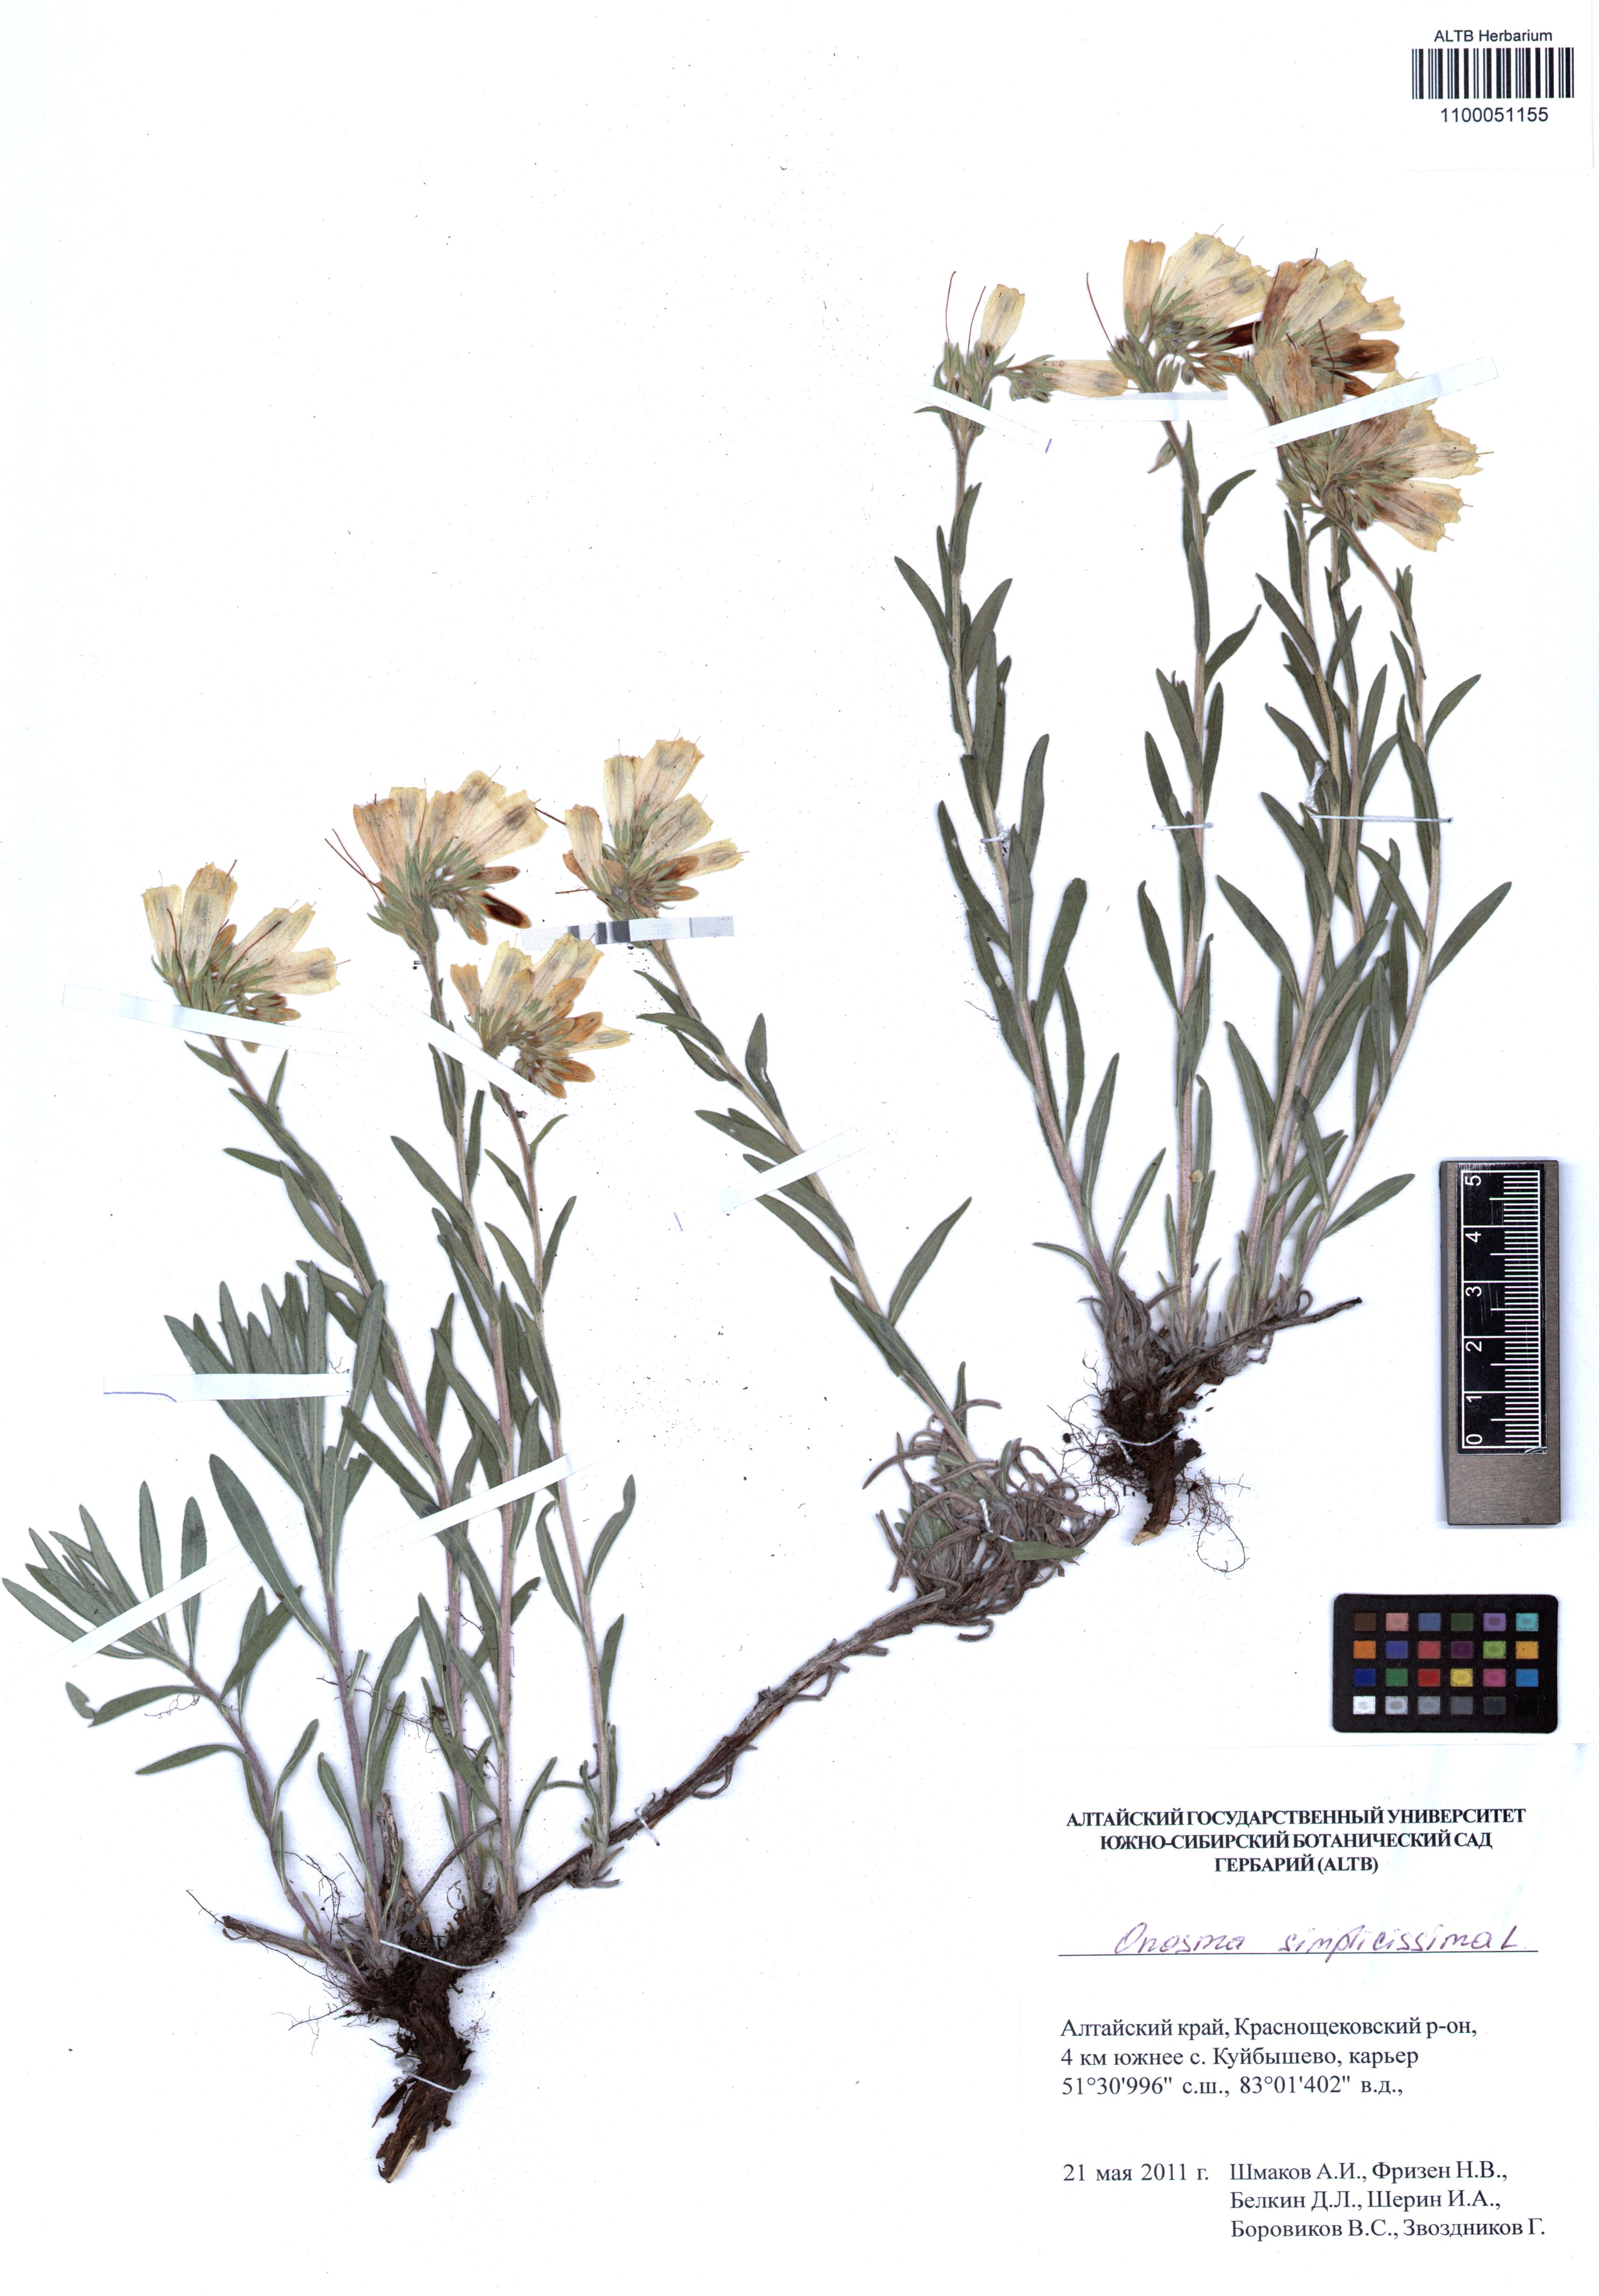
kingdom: Plantae
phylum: Tracheophyta
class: Magnoliopsida
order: Boraginales
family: Boraginaceae
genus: Onosma
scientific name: Onosma simplicissima
